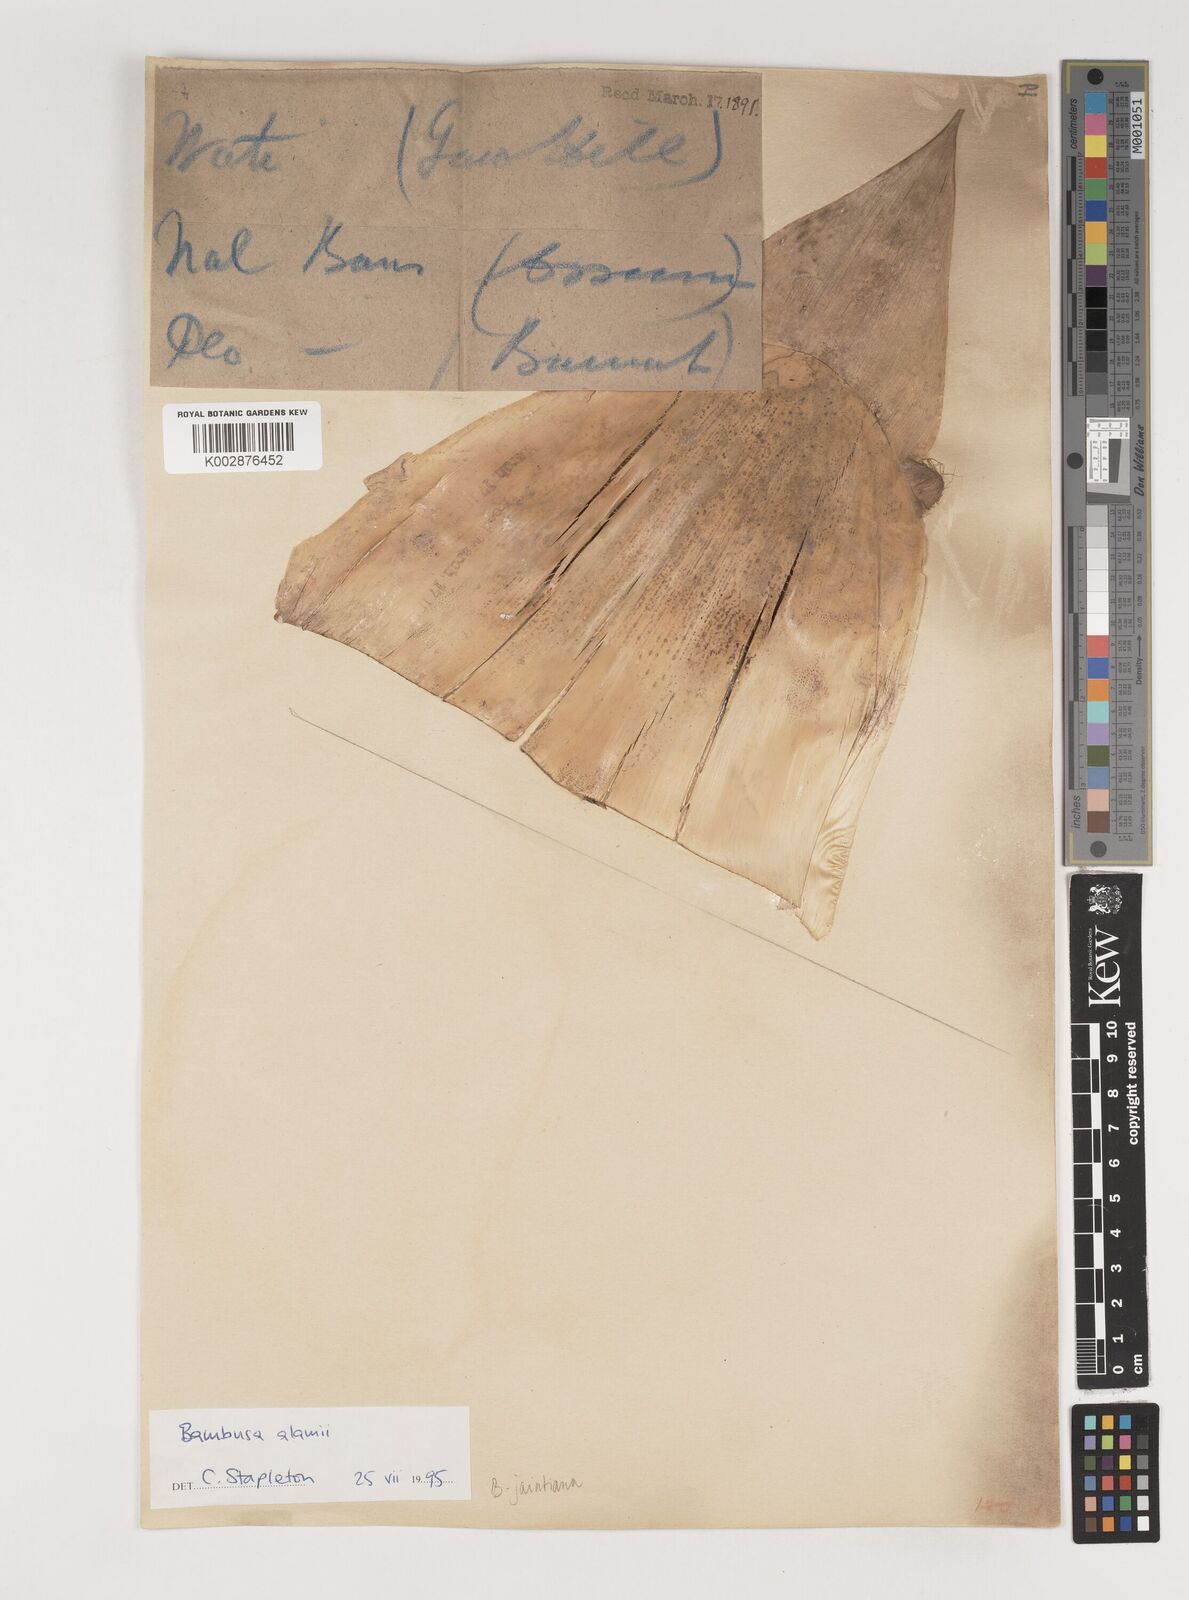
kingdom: Plantae
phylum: Tracheophyta
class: Liliopsida
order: Poales
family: Poaceae
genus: Bambusa
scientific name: Bambusa jaintiana
